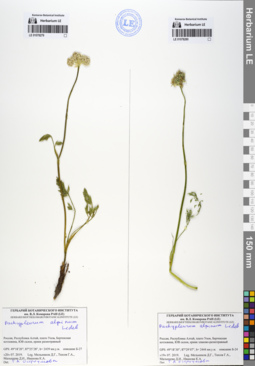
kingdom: Plantae
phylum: Tracheophyta
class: Magnoliopsida
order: Apiales
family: Apiaceae
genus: Pachypleurum
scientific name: Pachypleurum mutellinoides
